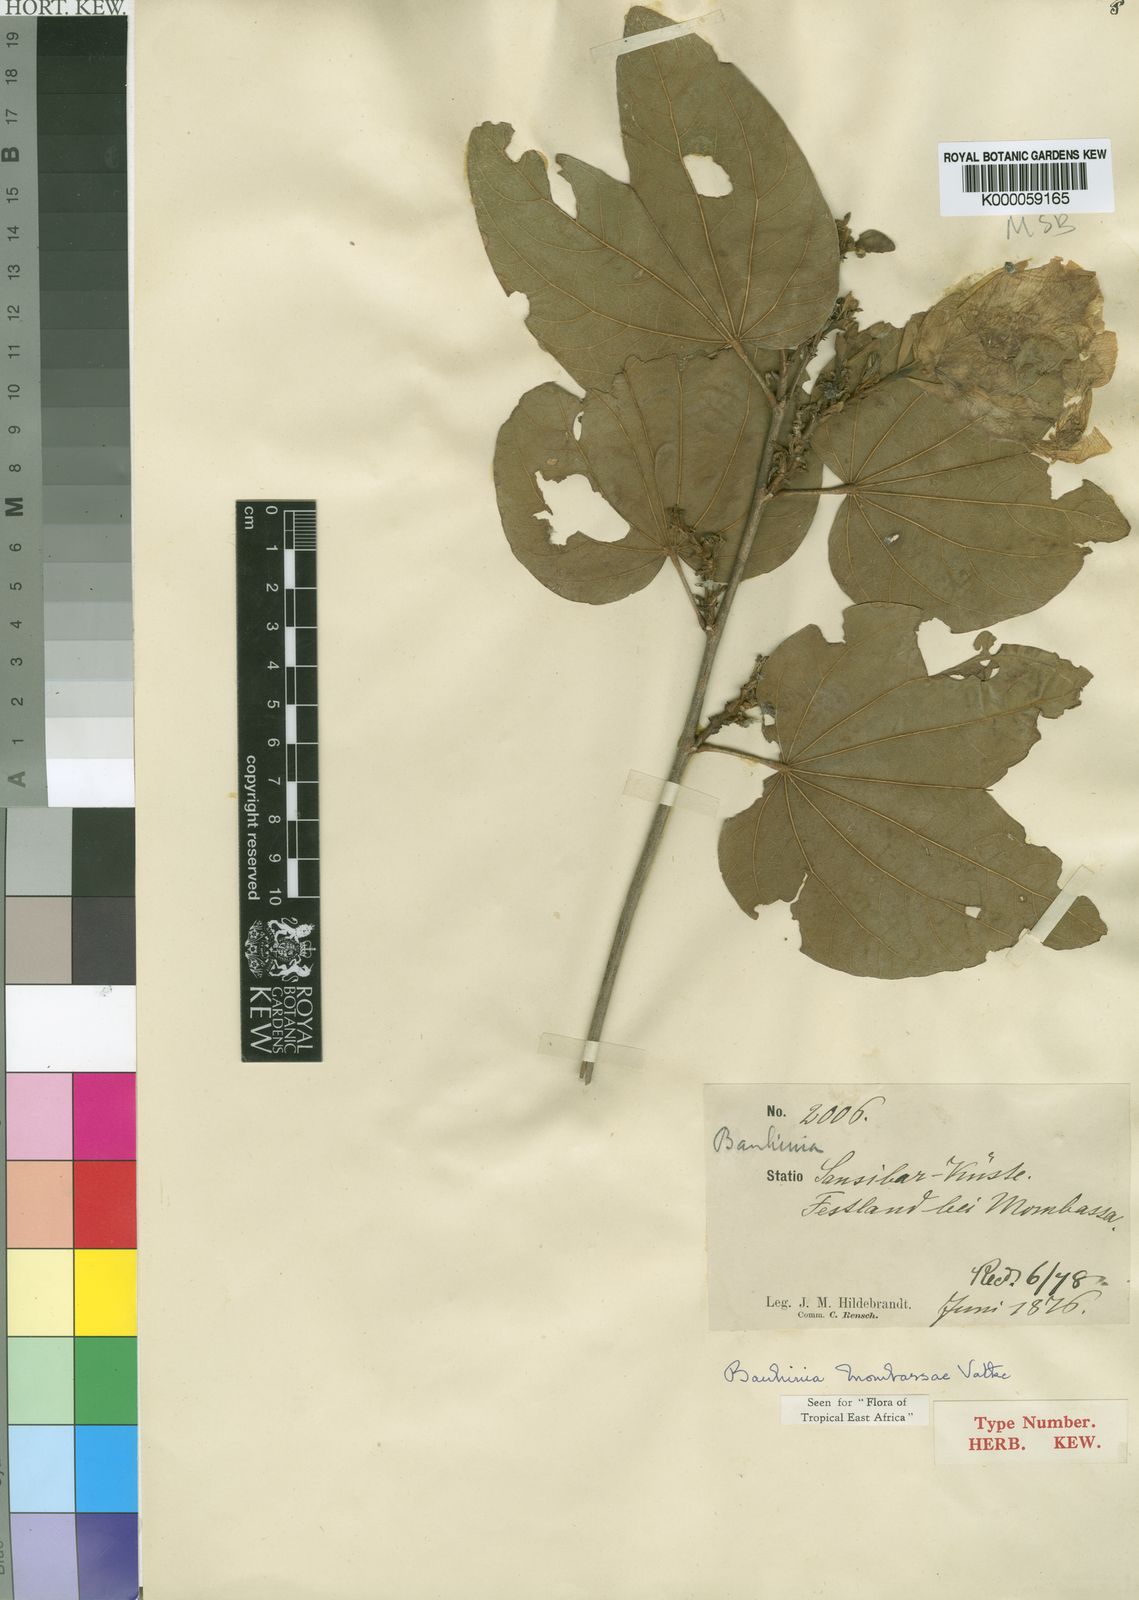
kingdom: Plantae
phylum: Tracheophyta
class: Magnoliopsida
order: Fabales
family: Fabaceae
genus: Bauhinia
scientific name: Bauhinia mombassae
